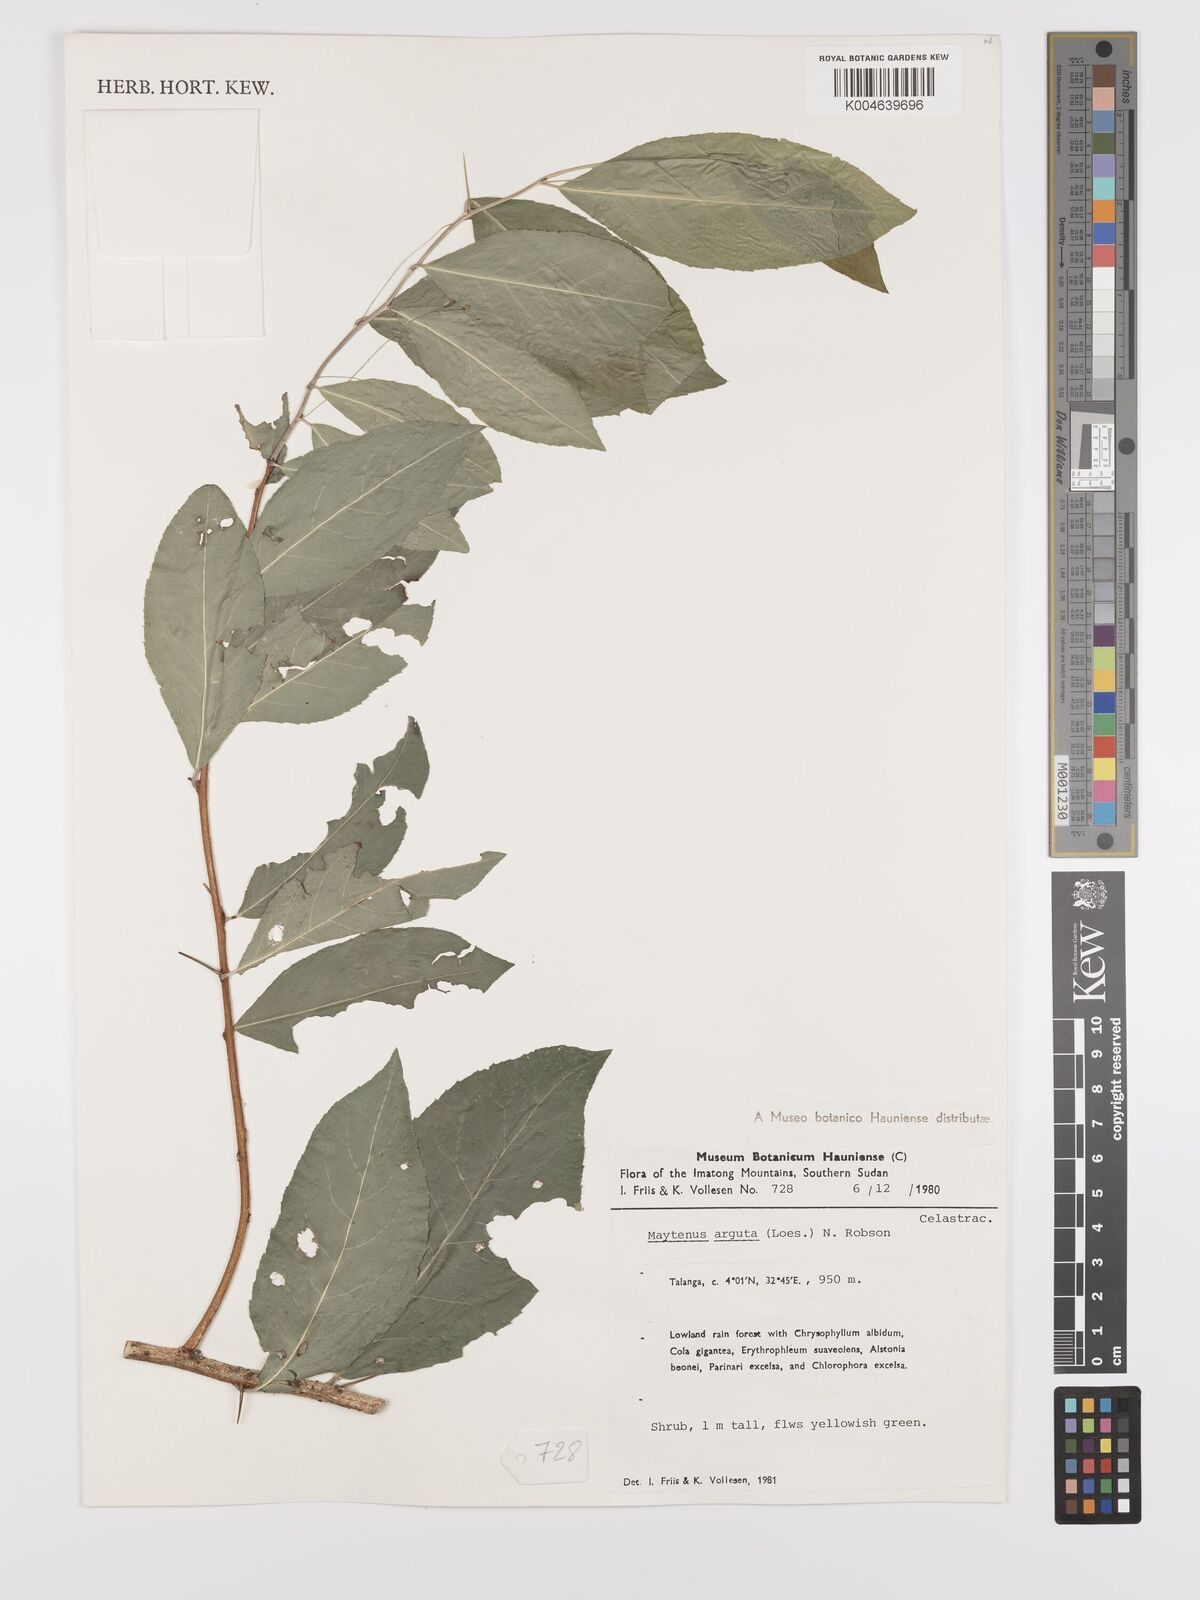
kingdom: Plantae
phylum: Tracheophyta
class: Magnoliopsida
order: Celastrales
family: Celastraceae
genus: Gymnosporia
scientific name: Gymnosporia gracilipes
